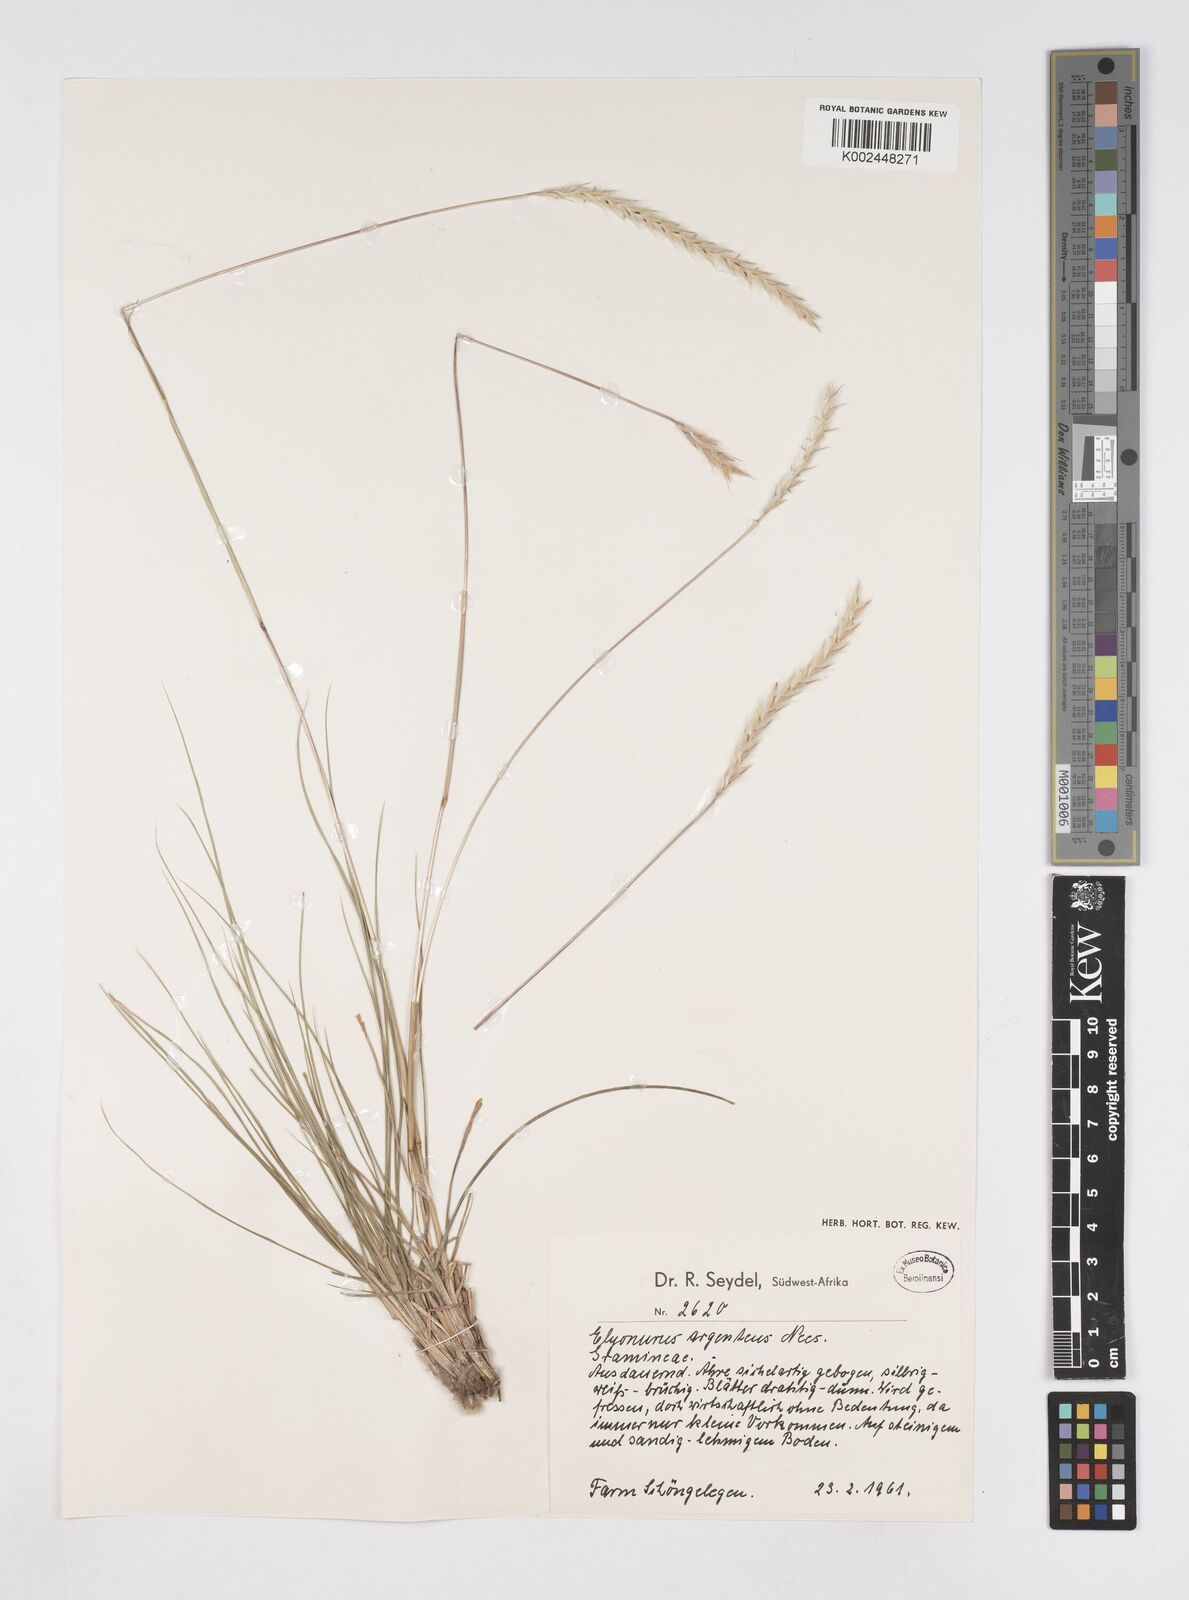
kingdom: Plantae
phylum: Tracheophyta
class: Liliopsida
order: Poales
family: Poaceae
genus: Elionurus
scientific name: Elionurus muticus
